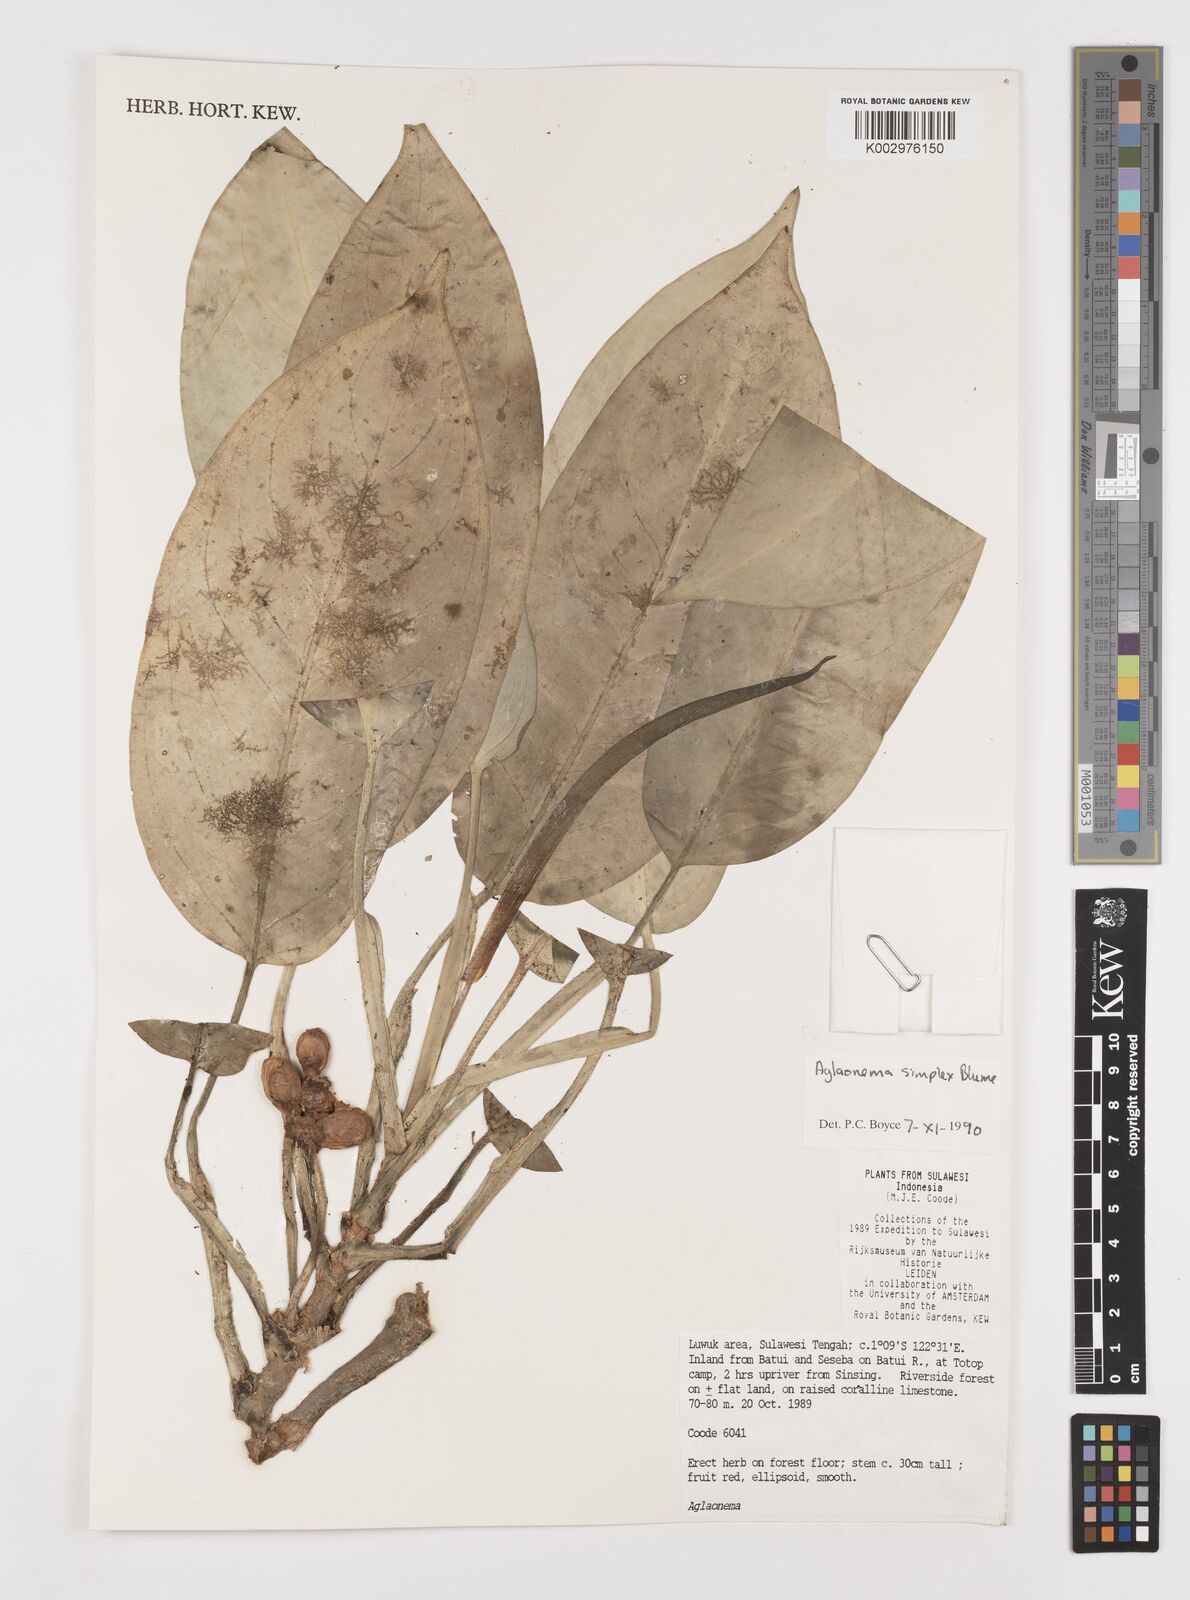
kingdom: Plantae
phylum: Tracheophyta
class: Liliopsida
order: Alismatales
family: Araceae
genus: Aglaonema
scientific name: Aglaonema simplex
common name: Malayan-sword
